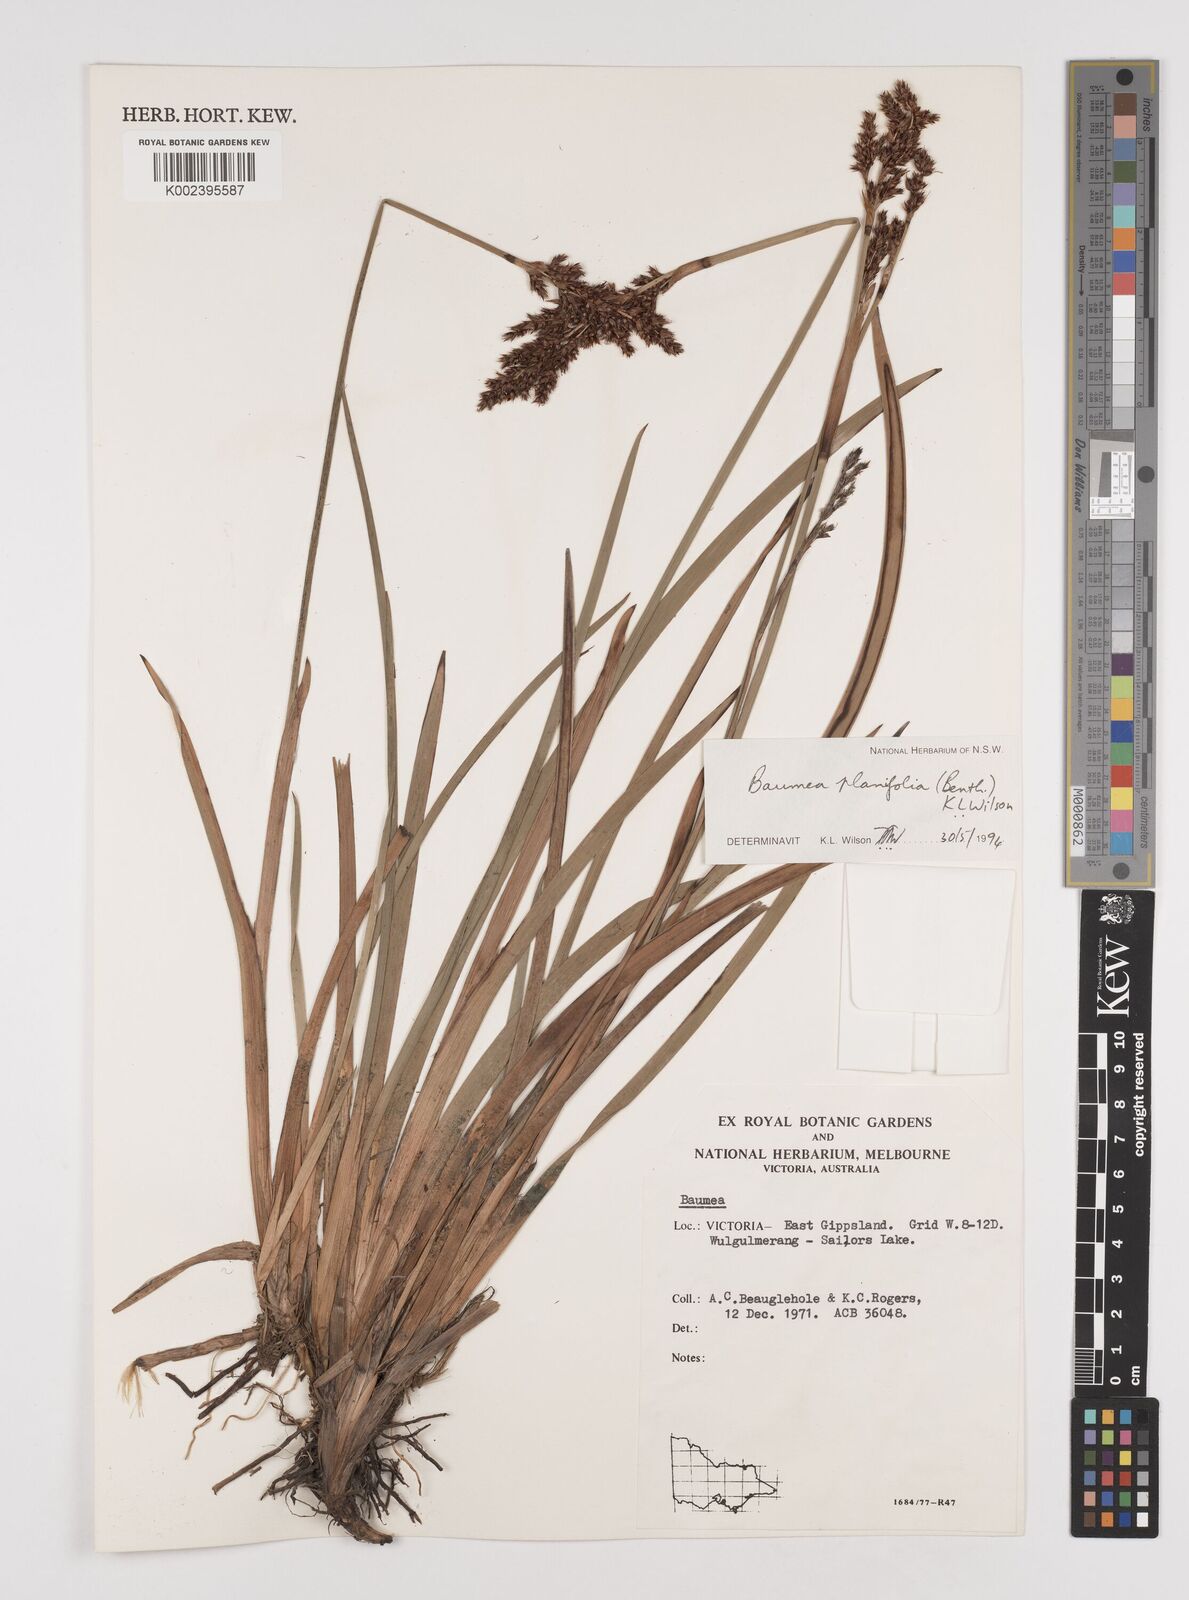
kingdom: Plantae
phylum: Tracheophyta
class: Liliopsida
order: Poales
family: Cyperaceae
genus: Machaerina
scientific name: Machaerina planifolia
